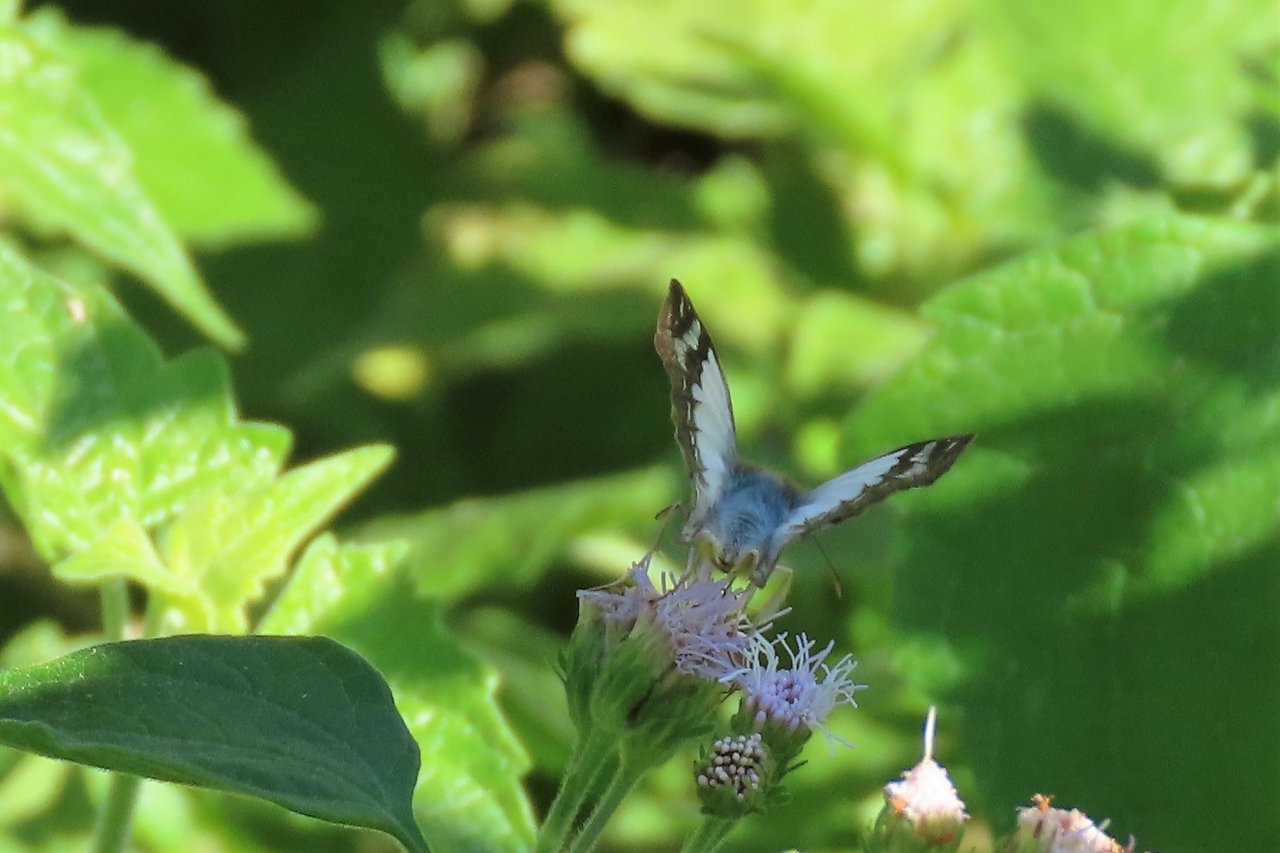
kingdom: Animalia
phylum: Arthropoda
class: Insecta
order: Lepidoptera
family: Hesperiidae
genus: Heliopetes
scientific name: Heliopetes laviana
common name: Laviana White-Skipper
